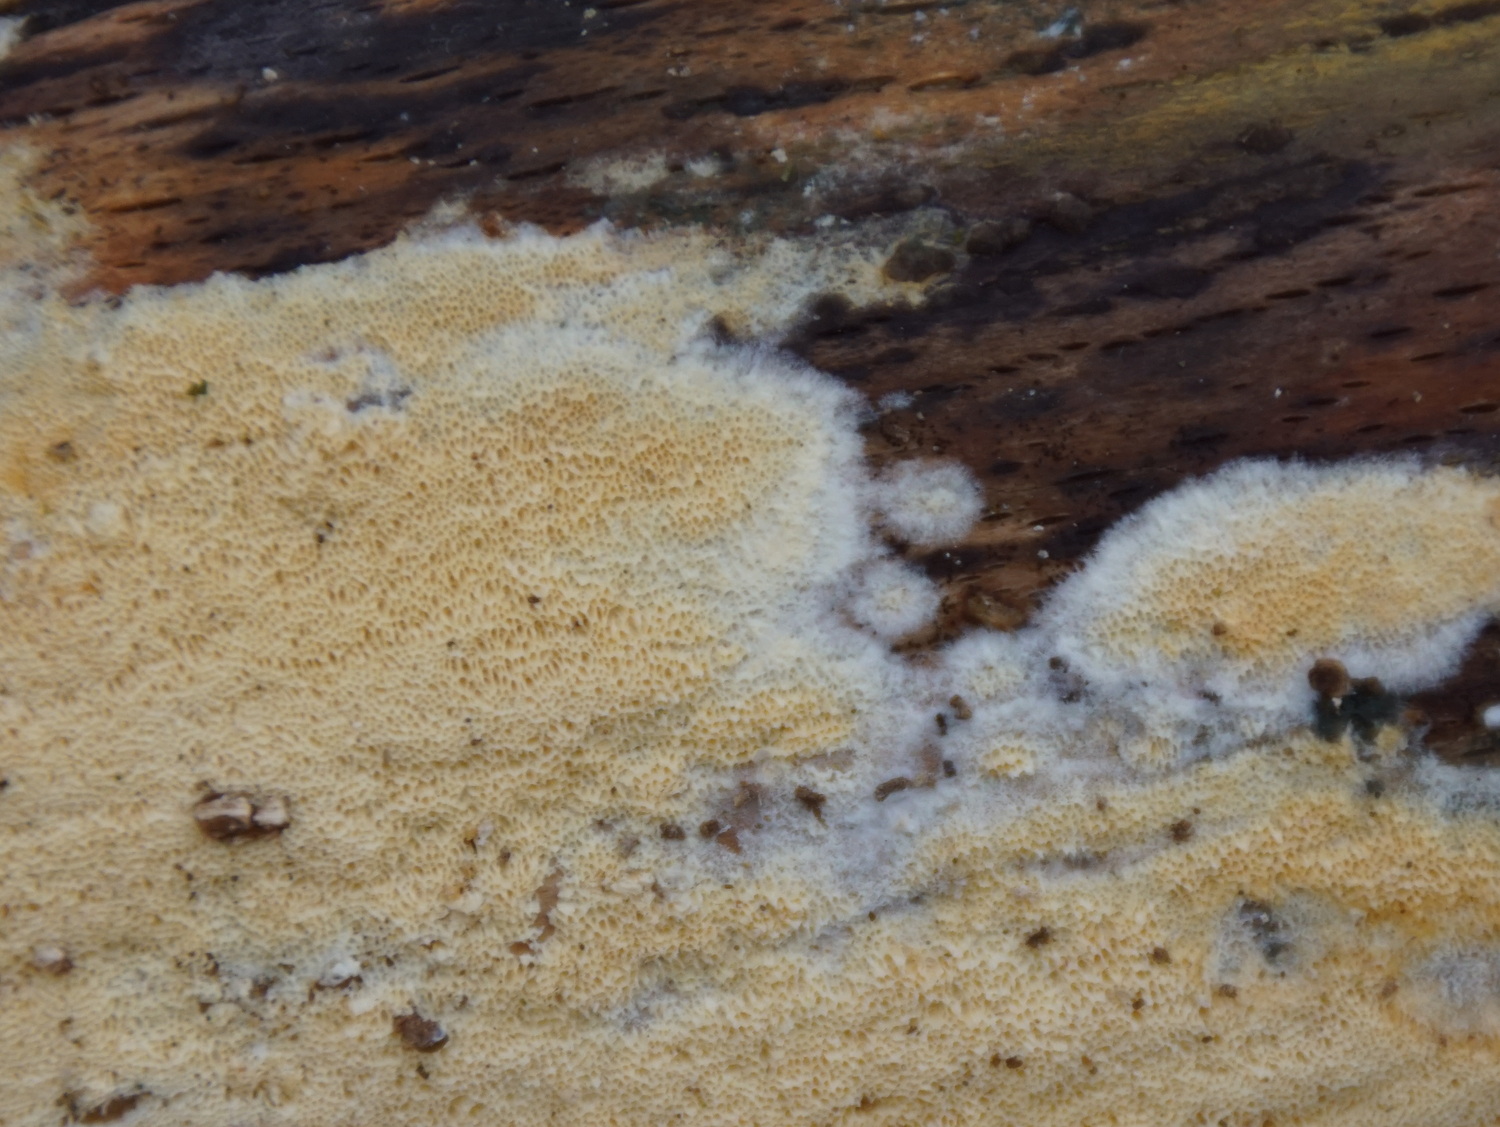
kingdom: Fungi
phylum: Basidiomycota
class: Agaricomycetes
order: Polyporales
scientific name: Polyporales
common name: poresvampordenen
